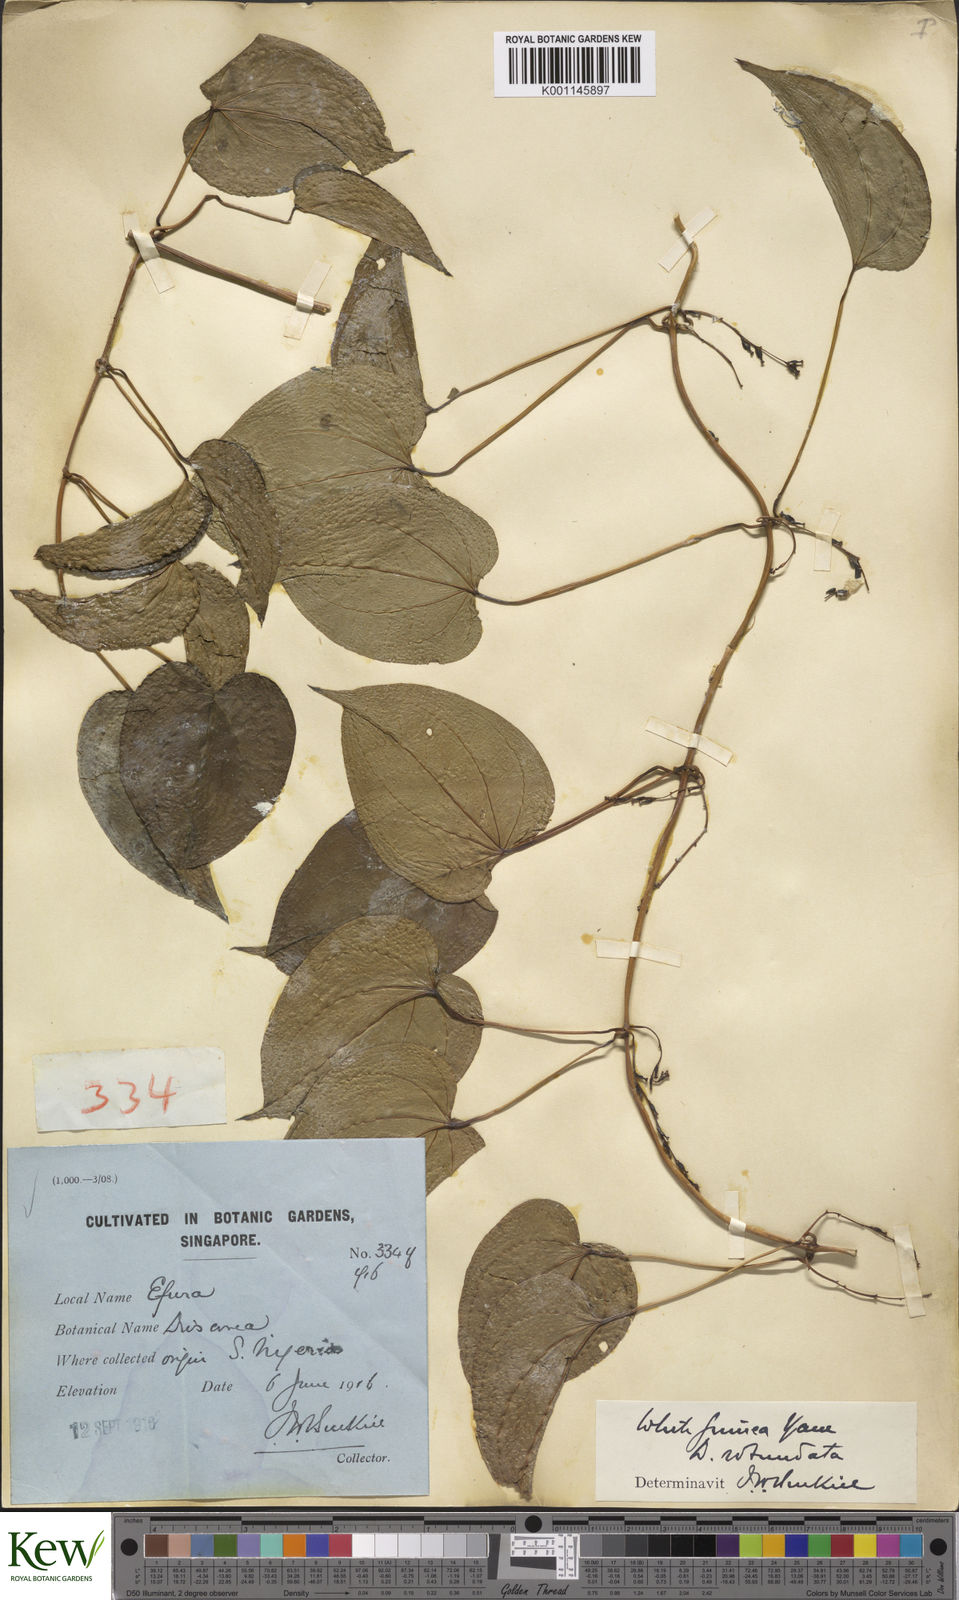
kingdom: Plantae
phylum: Tracheophyta
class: Liliopsida
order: Dioscoreales
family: Dioscoreaceae
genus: Dioscorea
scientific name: Dioscorea cayenensis
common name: Attoto yam
